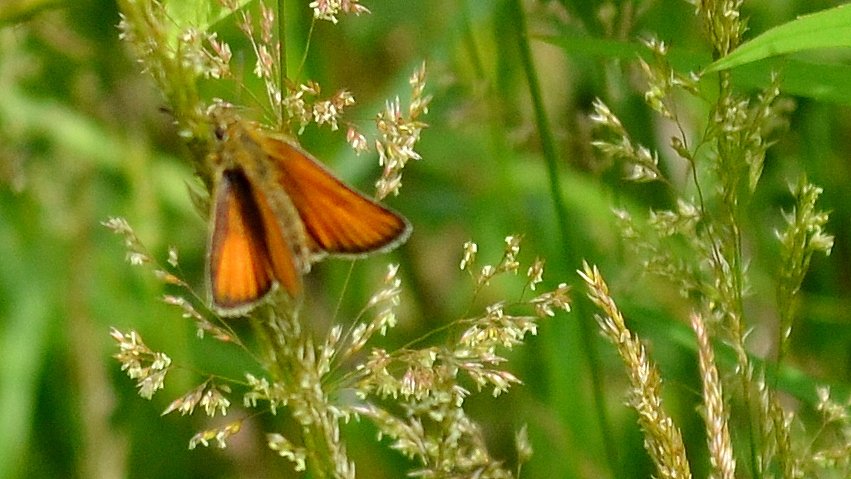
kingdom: Animalia
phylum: Arthropoda
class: Insecta
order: Lepidoptera
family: Hesperiidae
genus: Thymelicus
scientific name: Thymelicus lineola
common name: European Skipper
